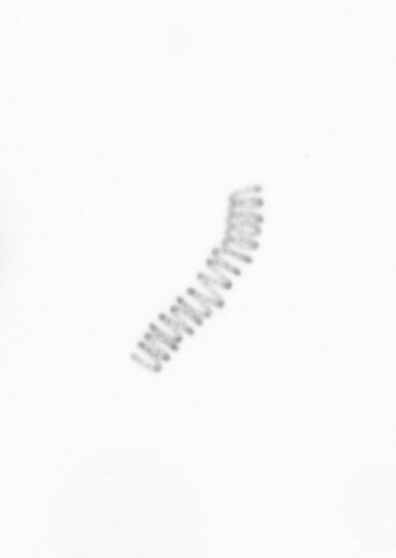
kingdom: Chromista
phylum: Ochrophyta
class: Bacillariophyceae
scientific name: Bacillariophyceae
